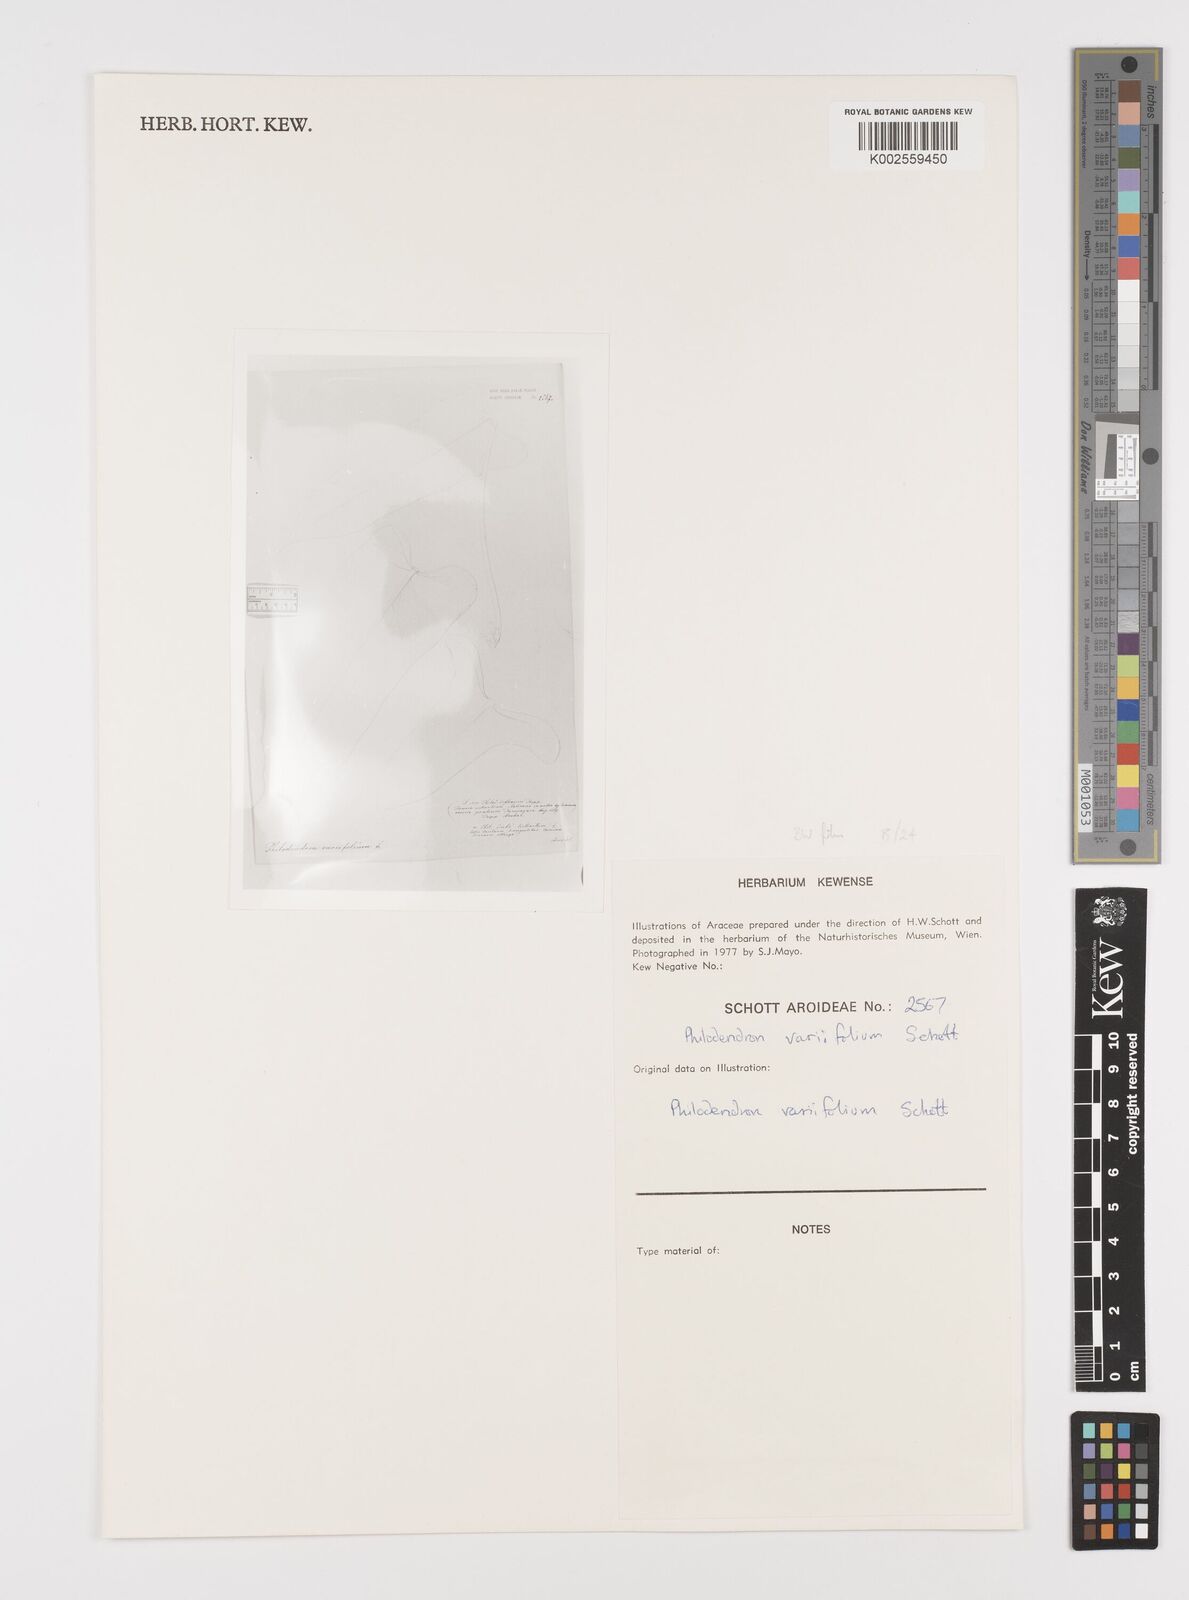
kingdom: Plantae
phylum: Tracheophyta
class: Liliopsida
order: Alismatales
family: Araceae
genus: Philodendron
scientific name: Philodendron variifolium
